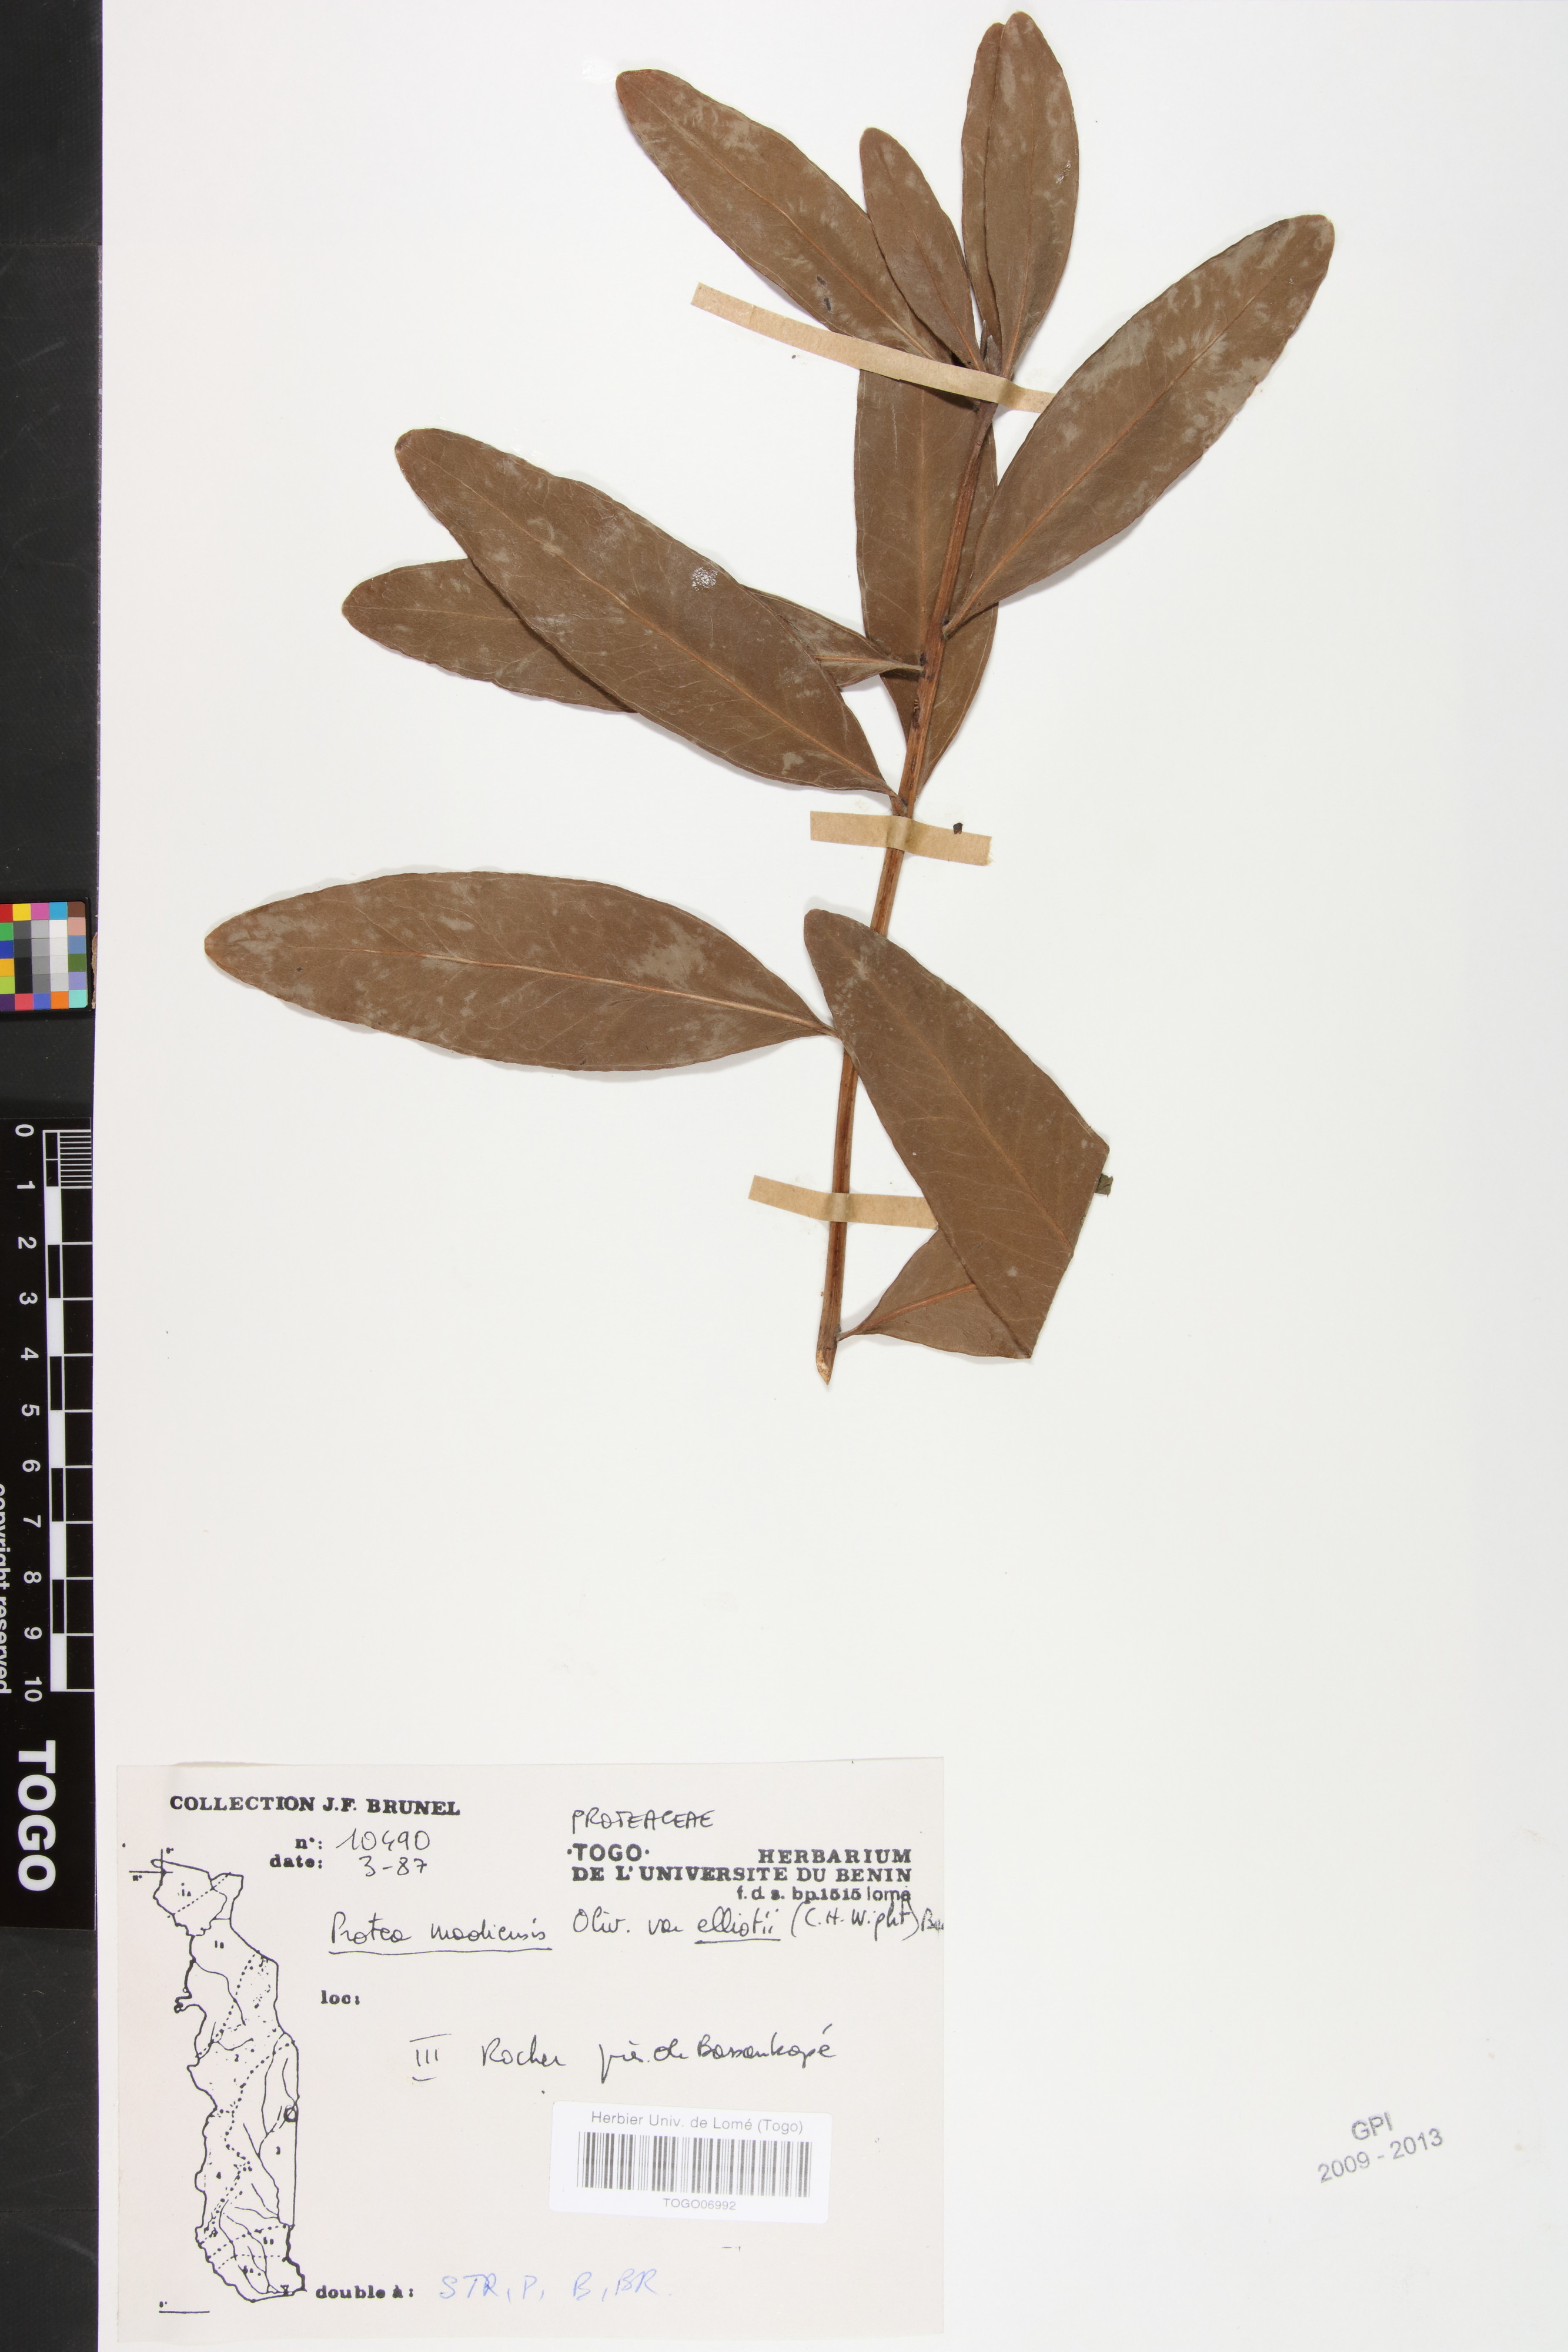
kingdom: Plantae
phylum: Tracheophyta
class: Magnoliopsida
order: Proteales
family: Proteaceae
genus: Protea
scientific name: Protea madiensis
